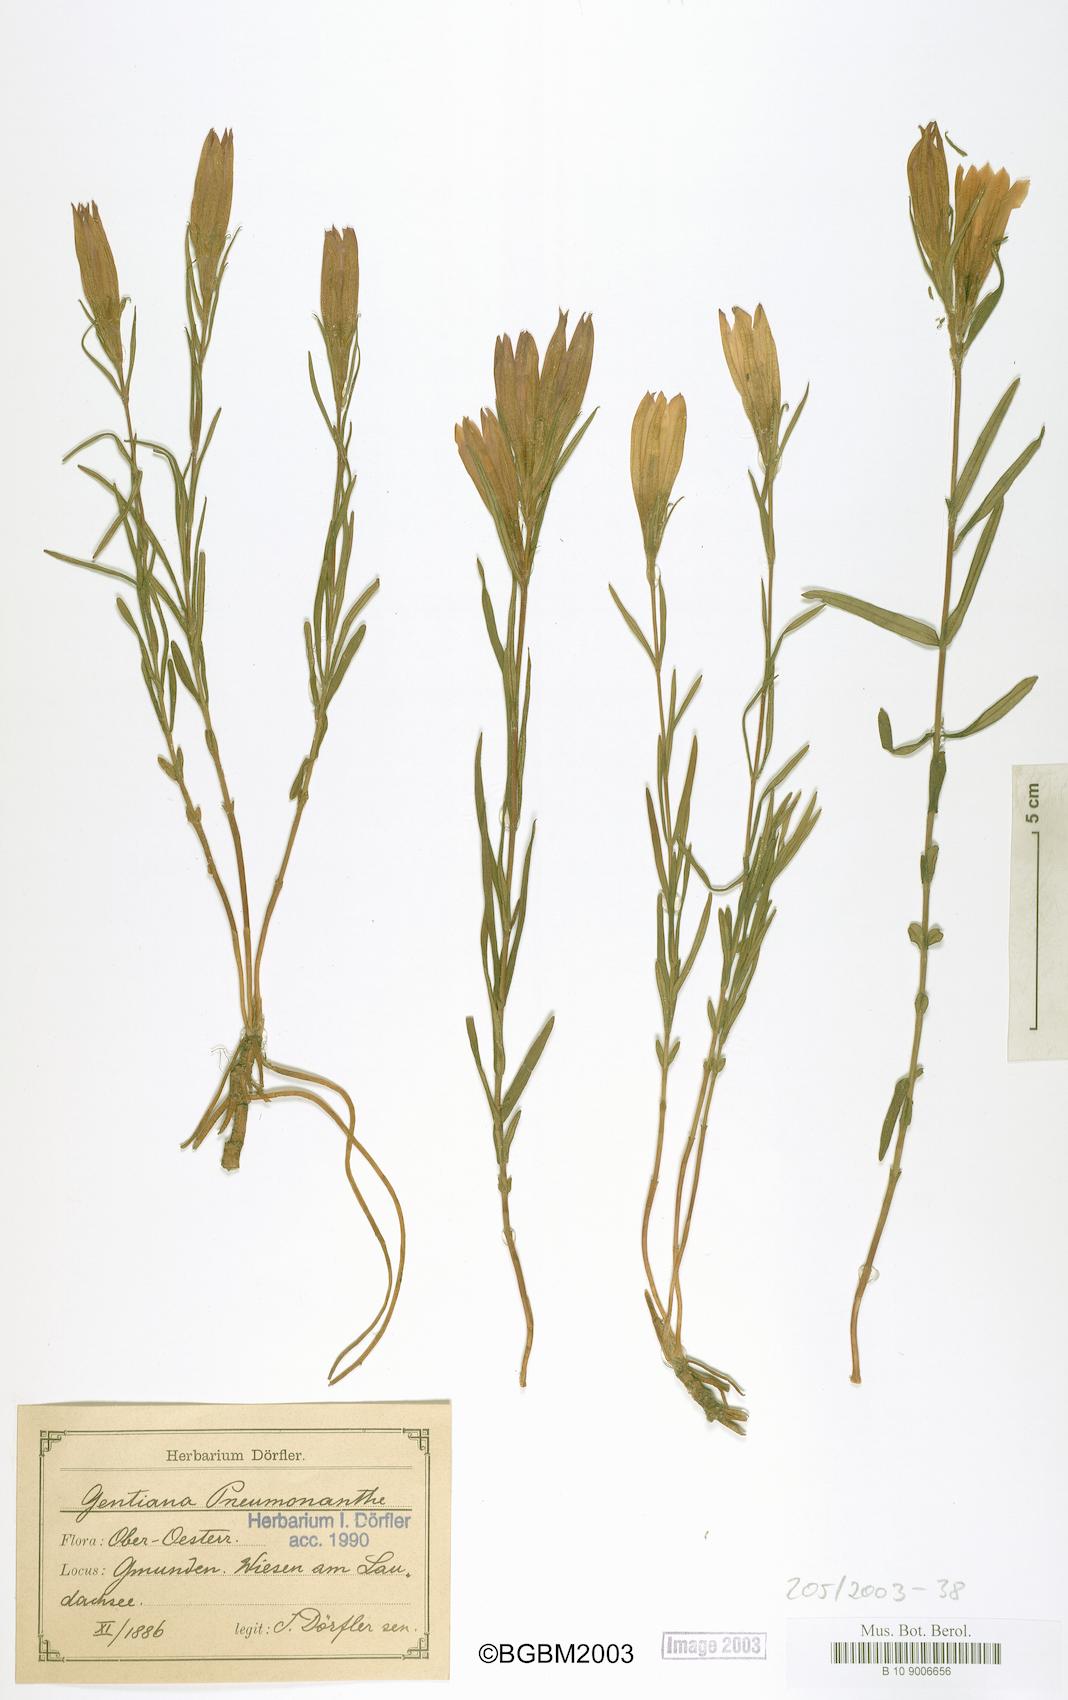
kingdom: Plantae
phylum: Tracheophyta
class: Magnoliopsida
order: Gentianales
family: Gentianaceae
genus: Gentiana
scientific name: Gentiana pneumonanthe
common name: Marsh gentian
